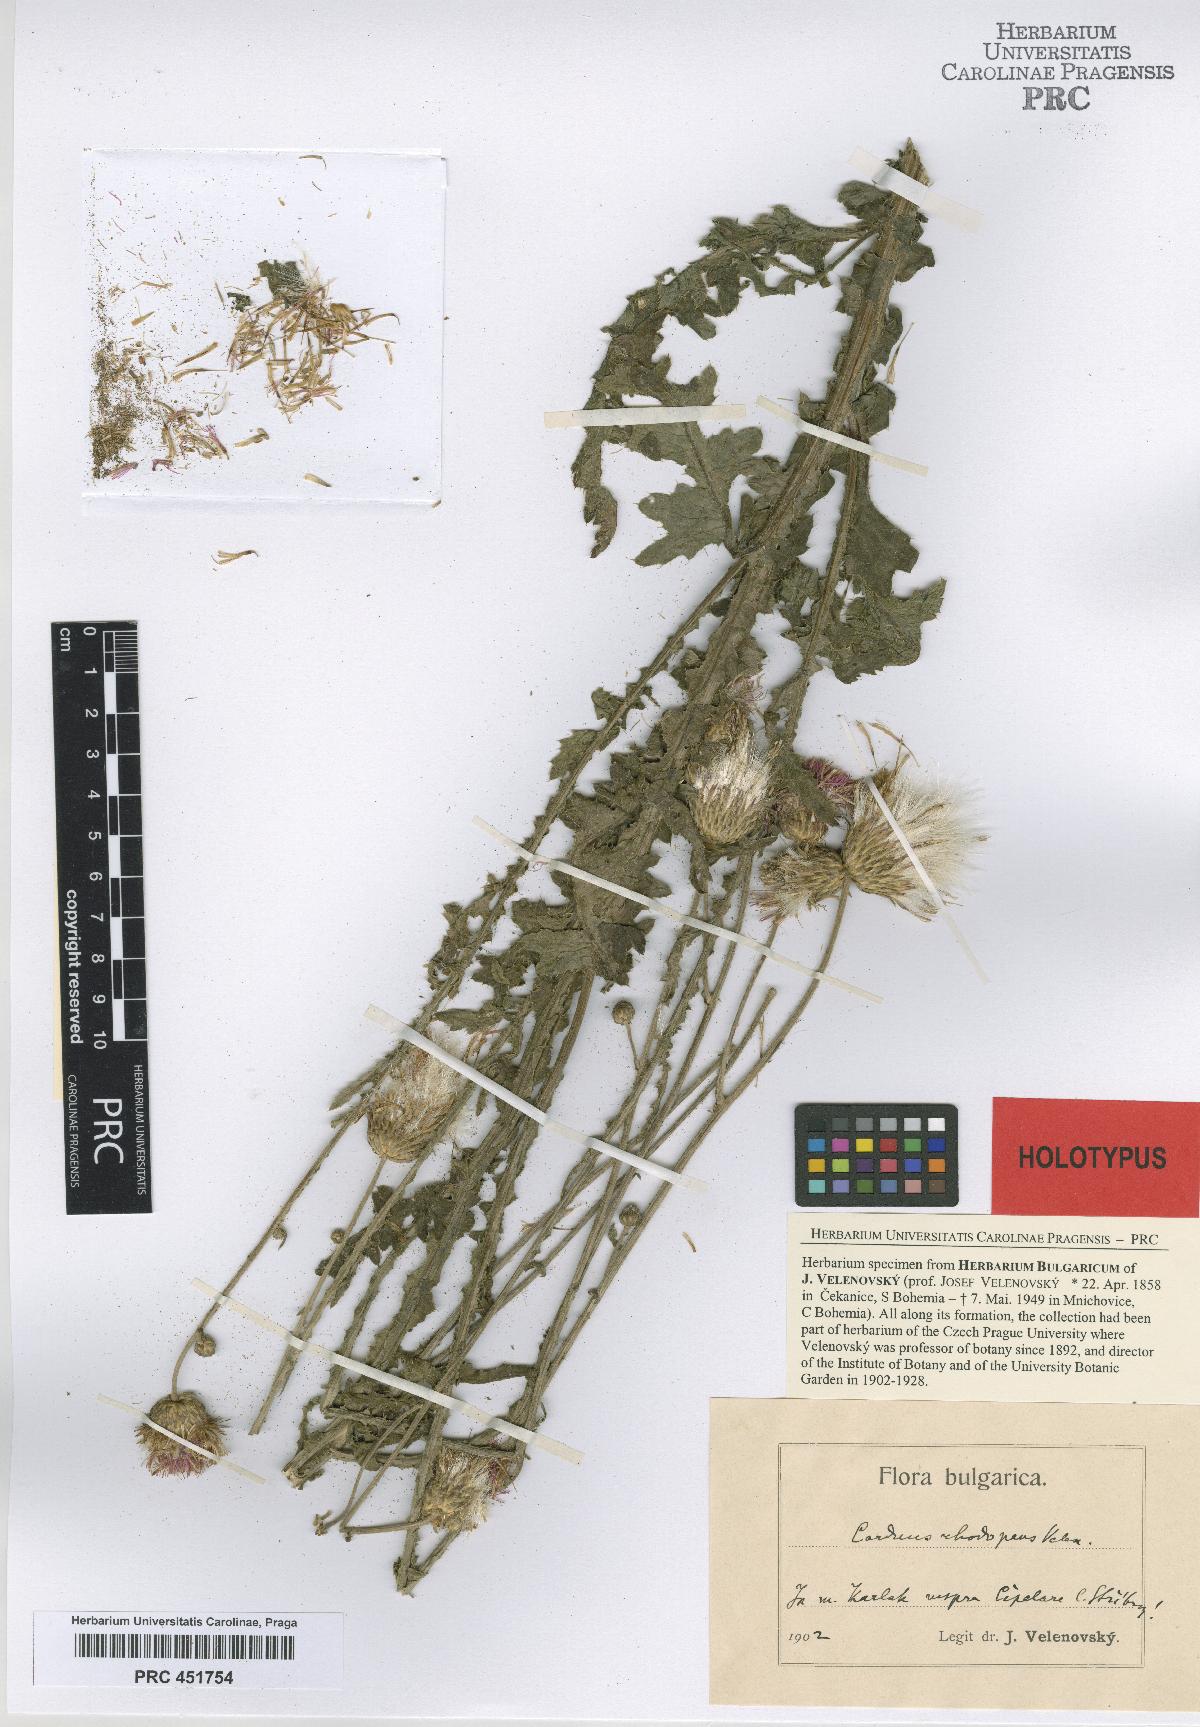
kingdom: Plantae
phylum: Tracheophyta
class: Magnoliopsida
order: Asterales
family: Asteraceae
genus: Carduus
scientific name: Carduus adpressus
